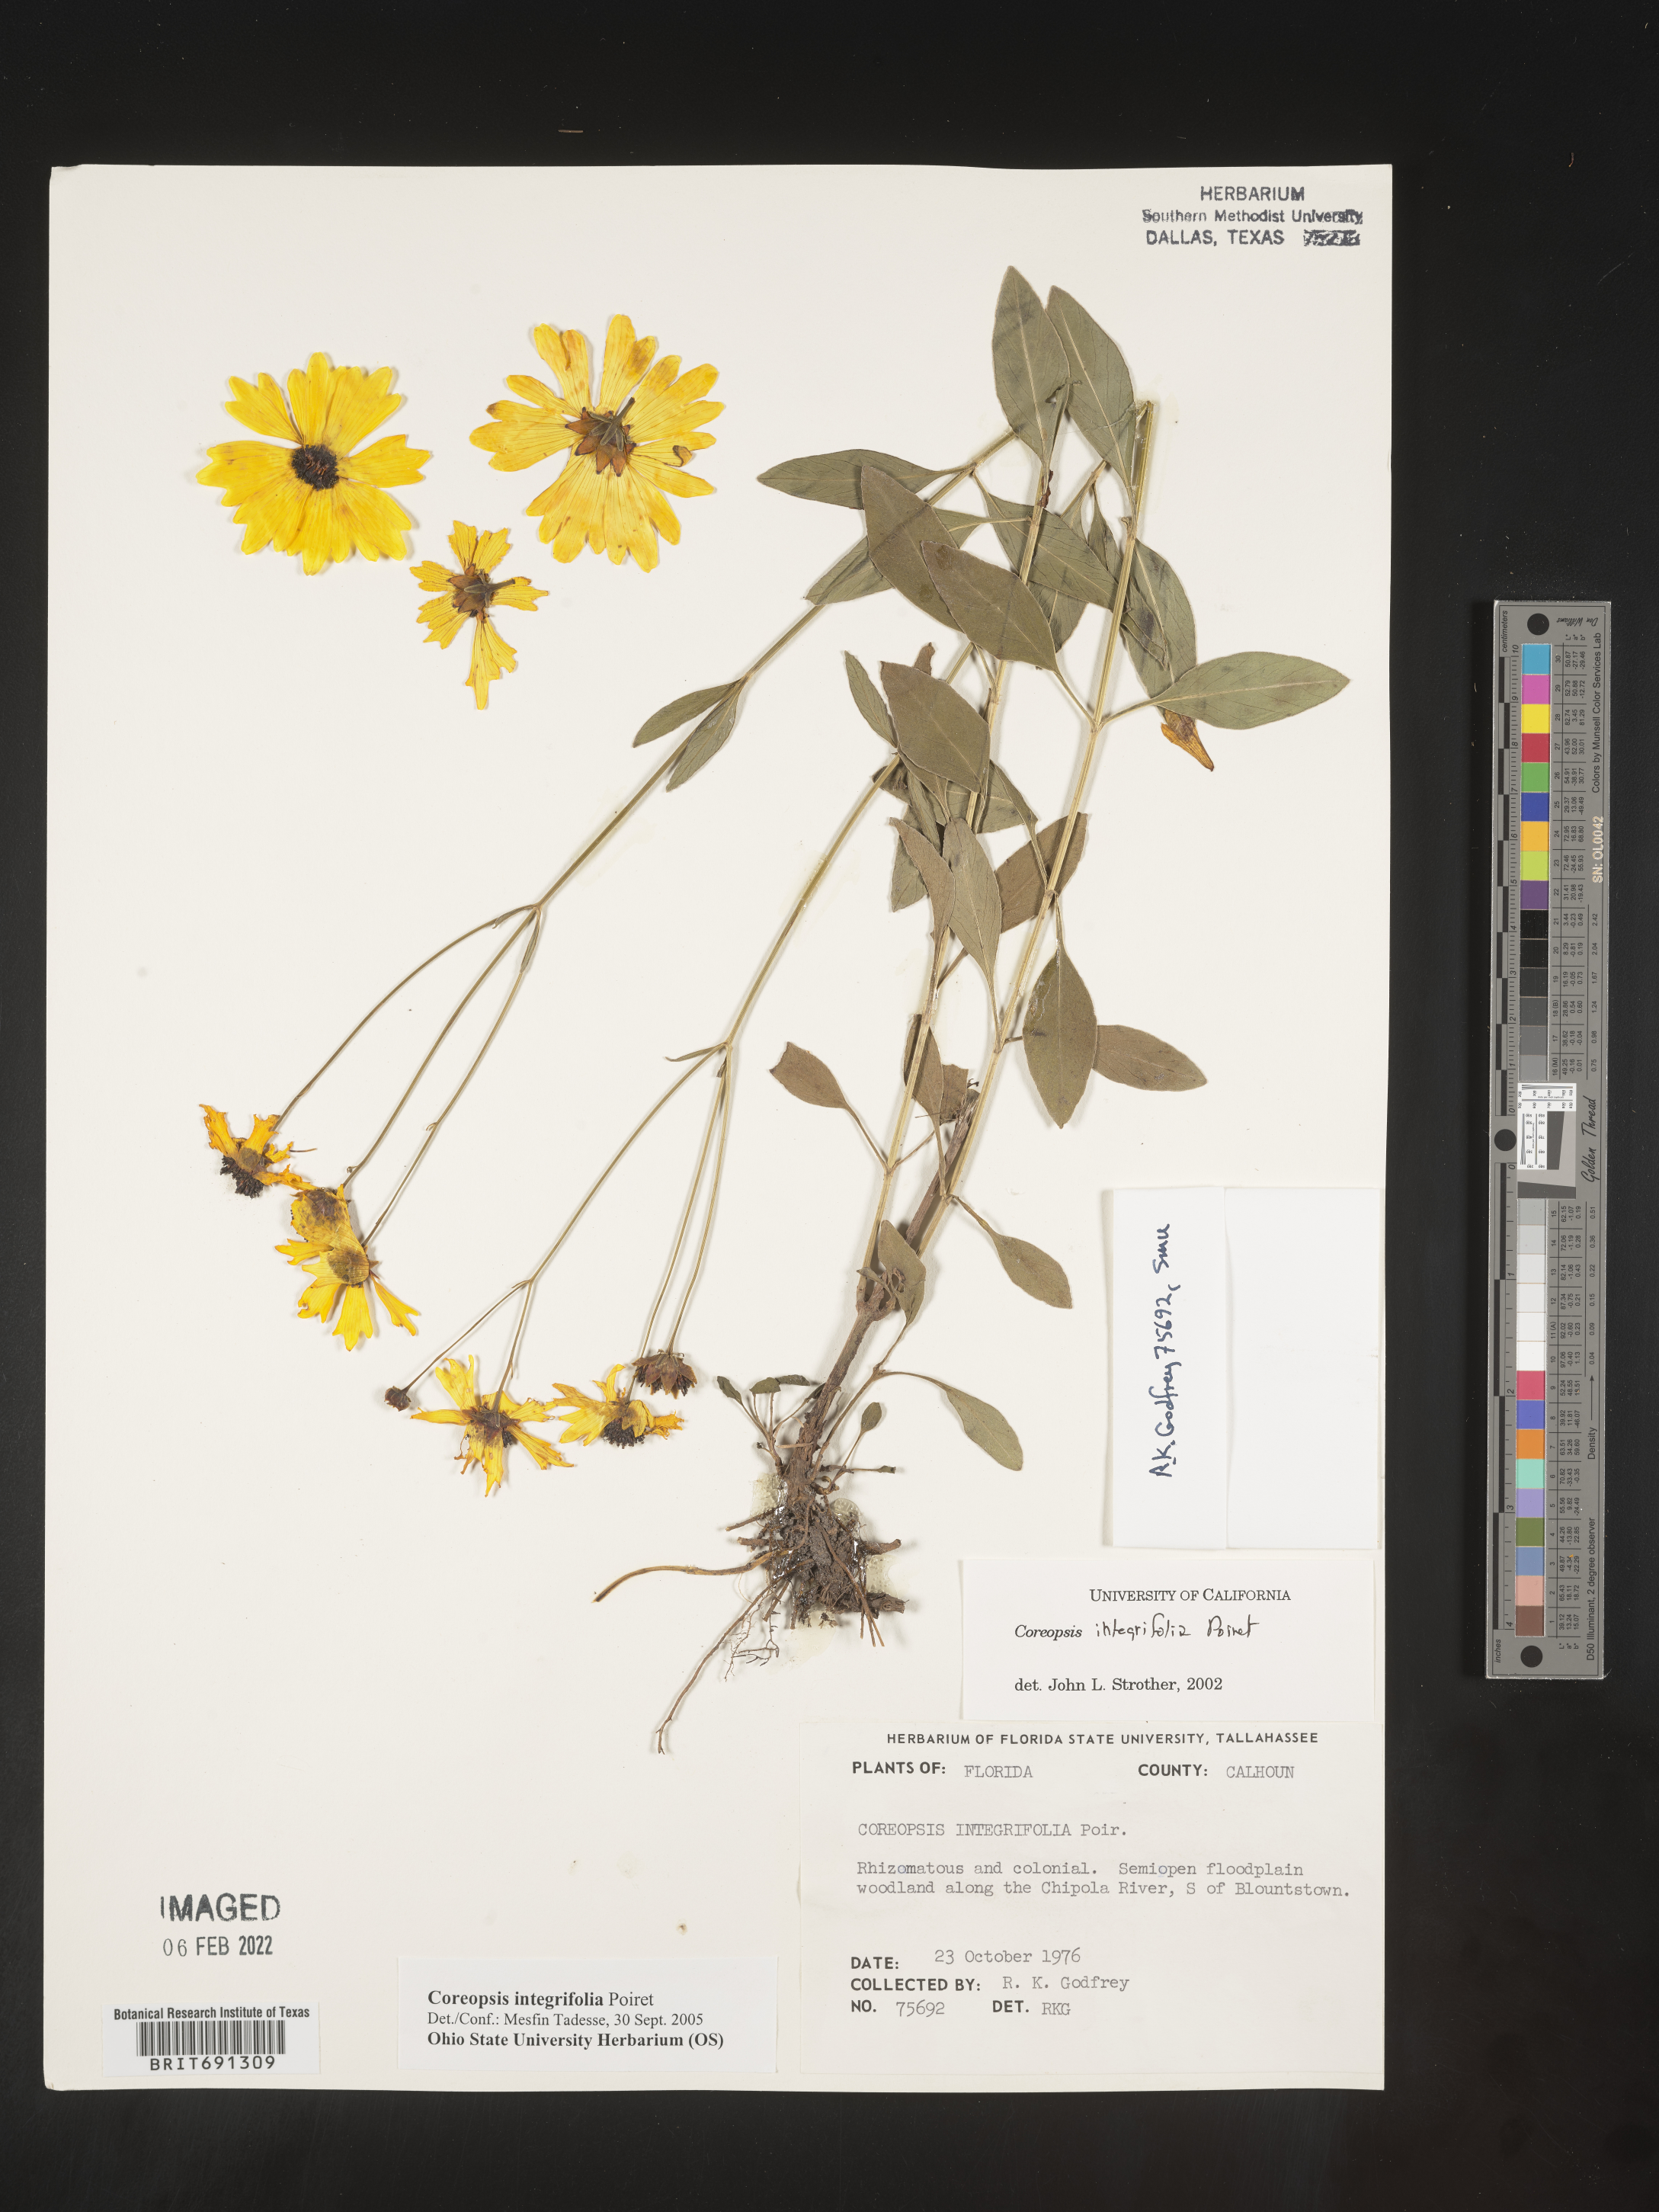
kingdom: Plantae
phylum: Tracheophyta
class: Magnoliopsida
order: Asterales
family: Asteraceae
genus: Coreopsis
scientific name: Coreopsis integrifolia
